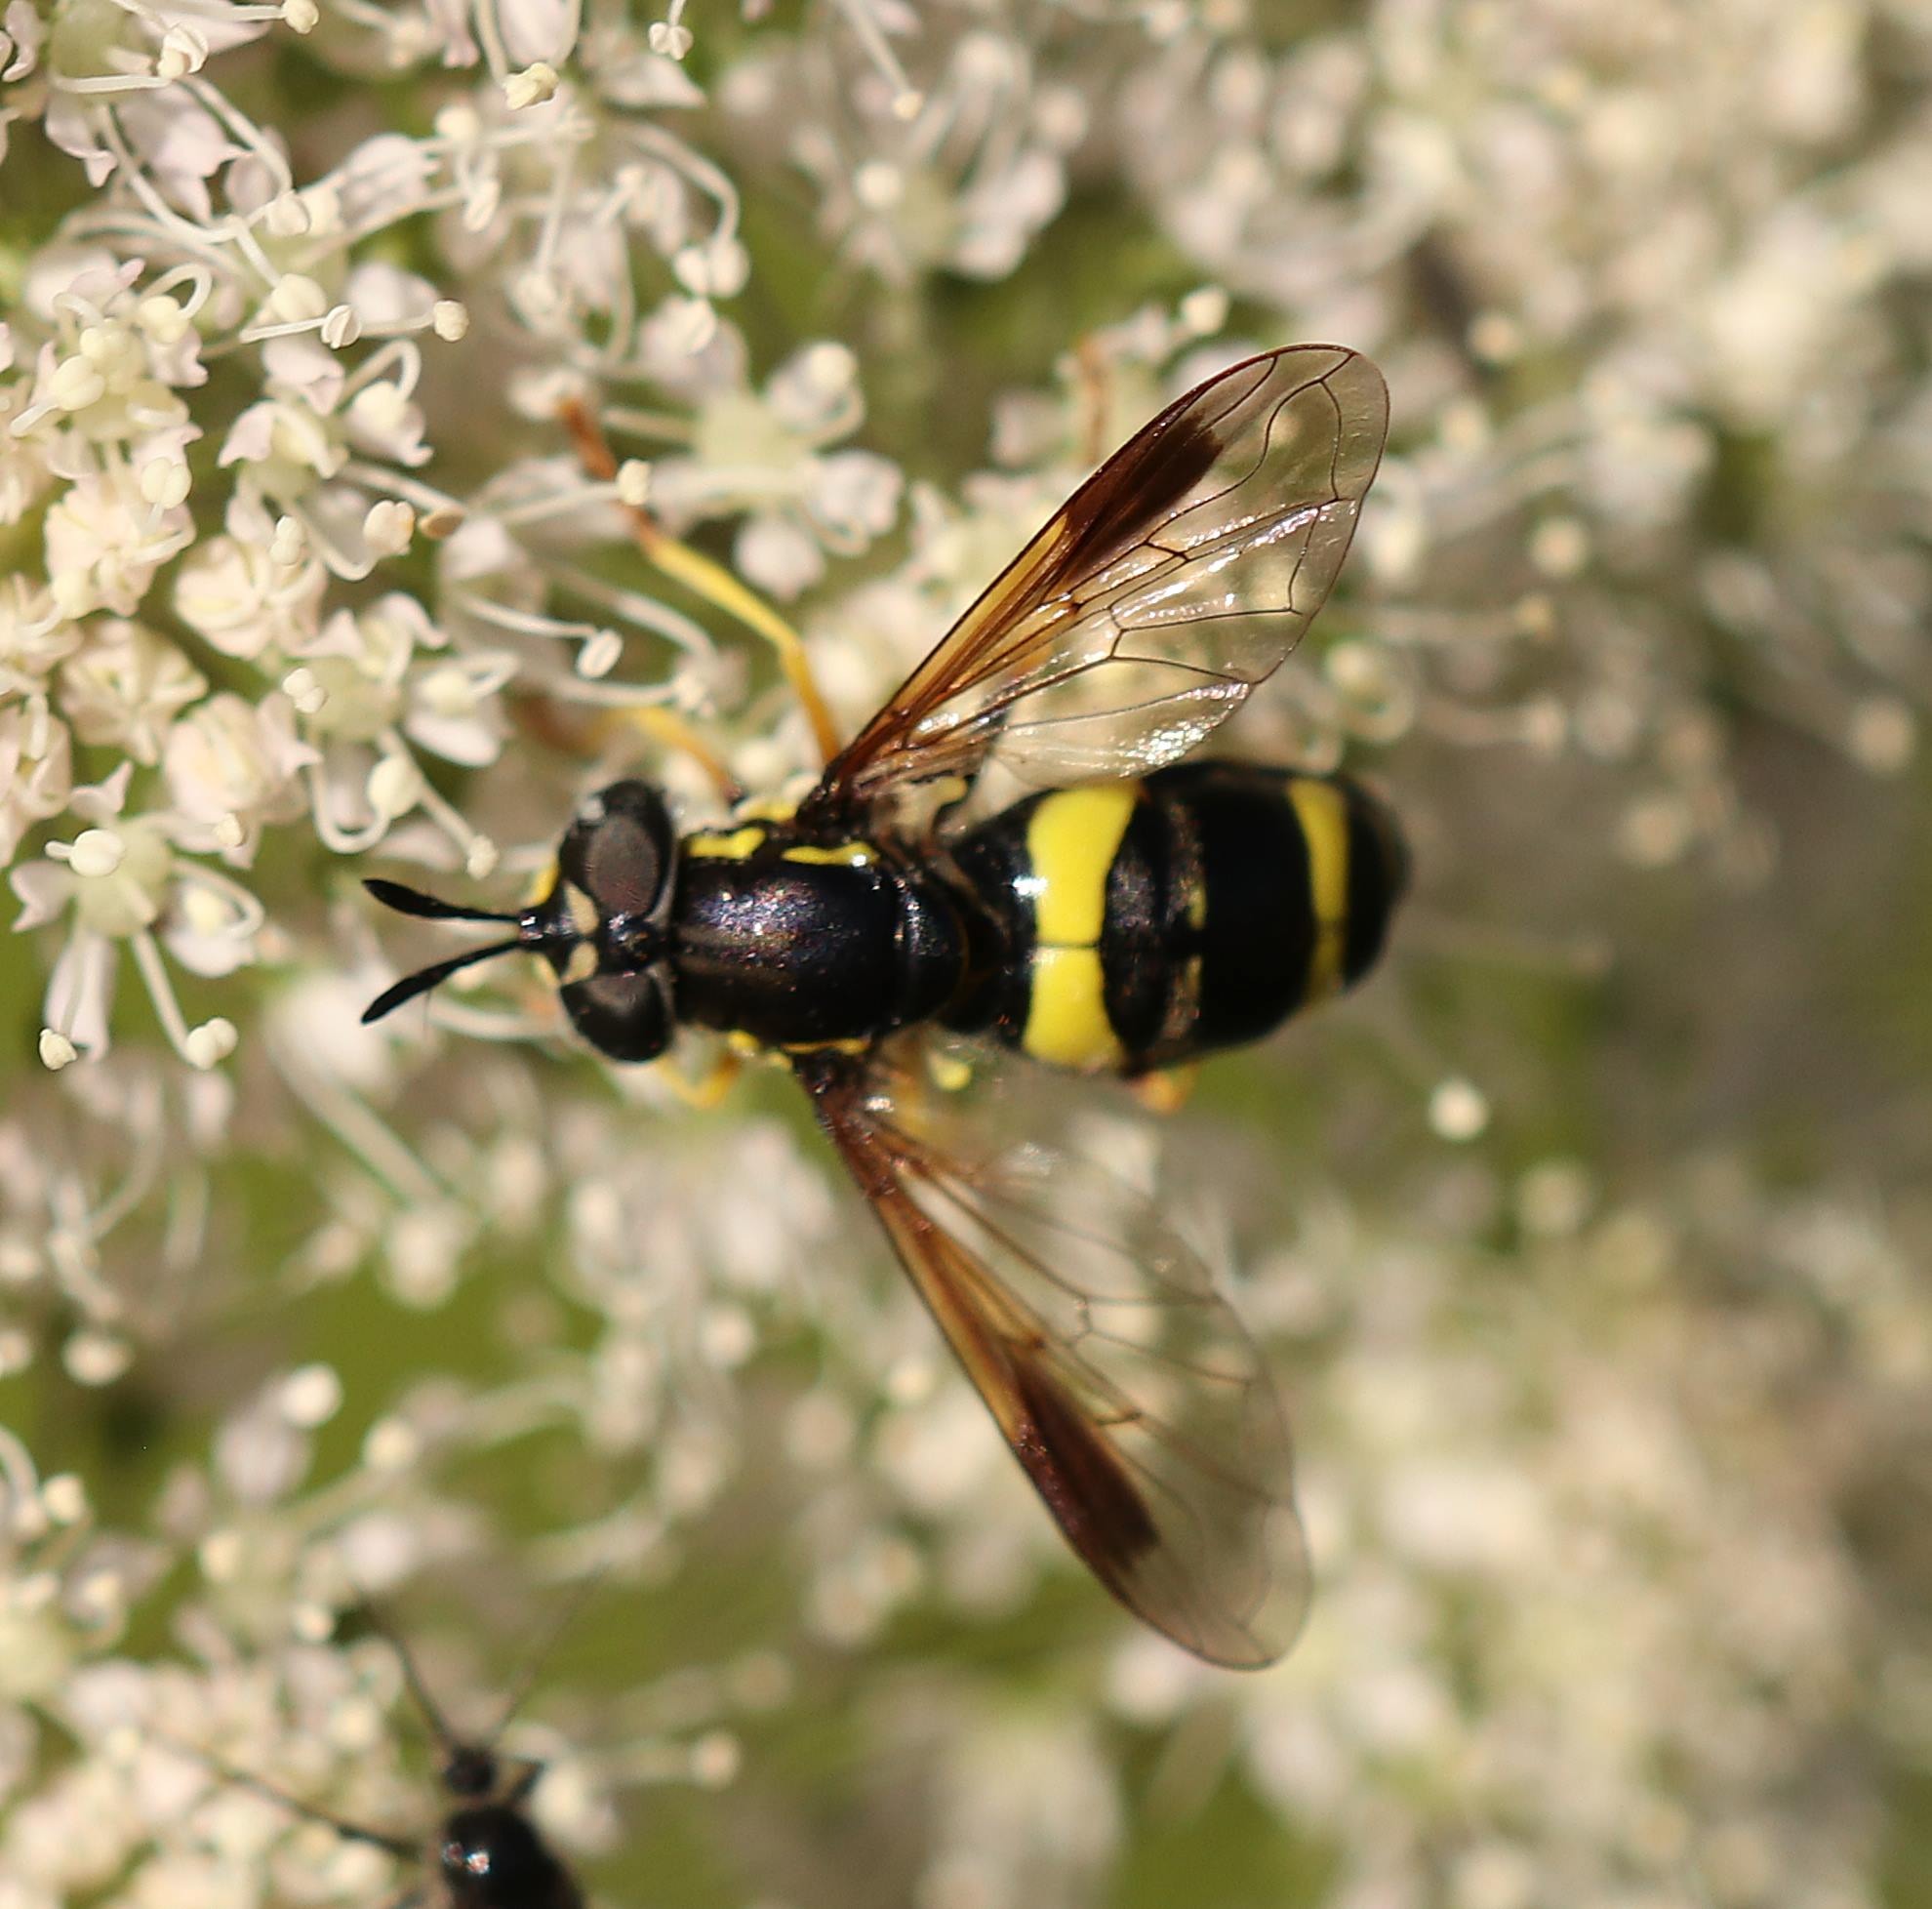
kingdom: Animalia
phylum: Arthropoda
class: Insecta
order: Diptera
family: Syrphidae
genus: Chrysotoxum
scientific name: Chrysotoxum bicincta
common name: Tobåndet hvepsesvirreflue
